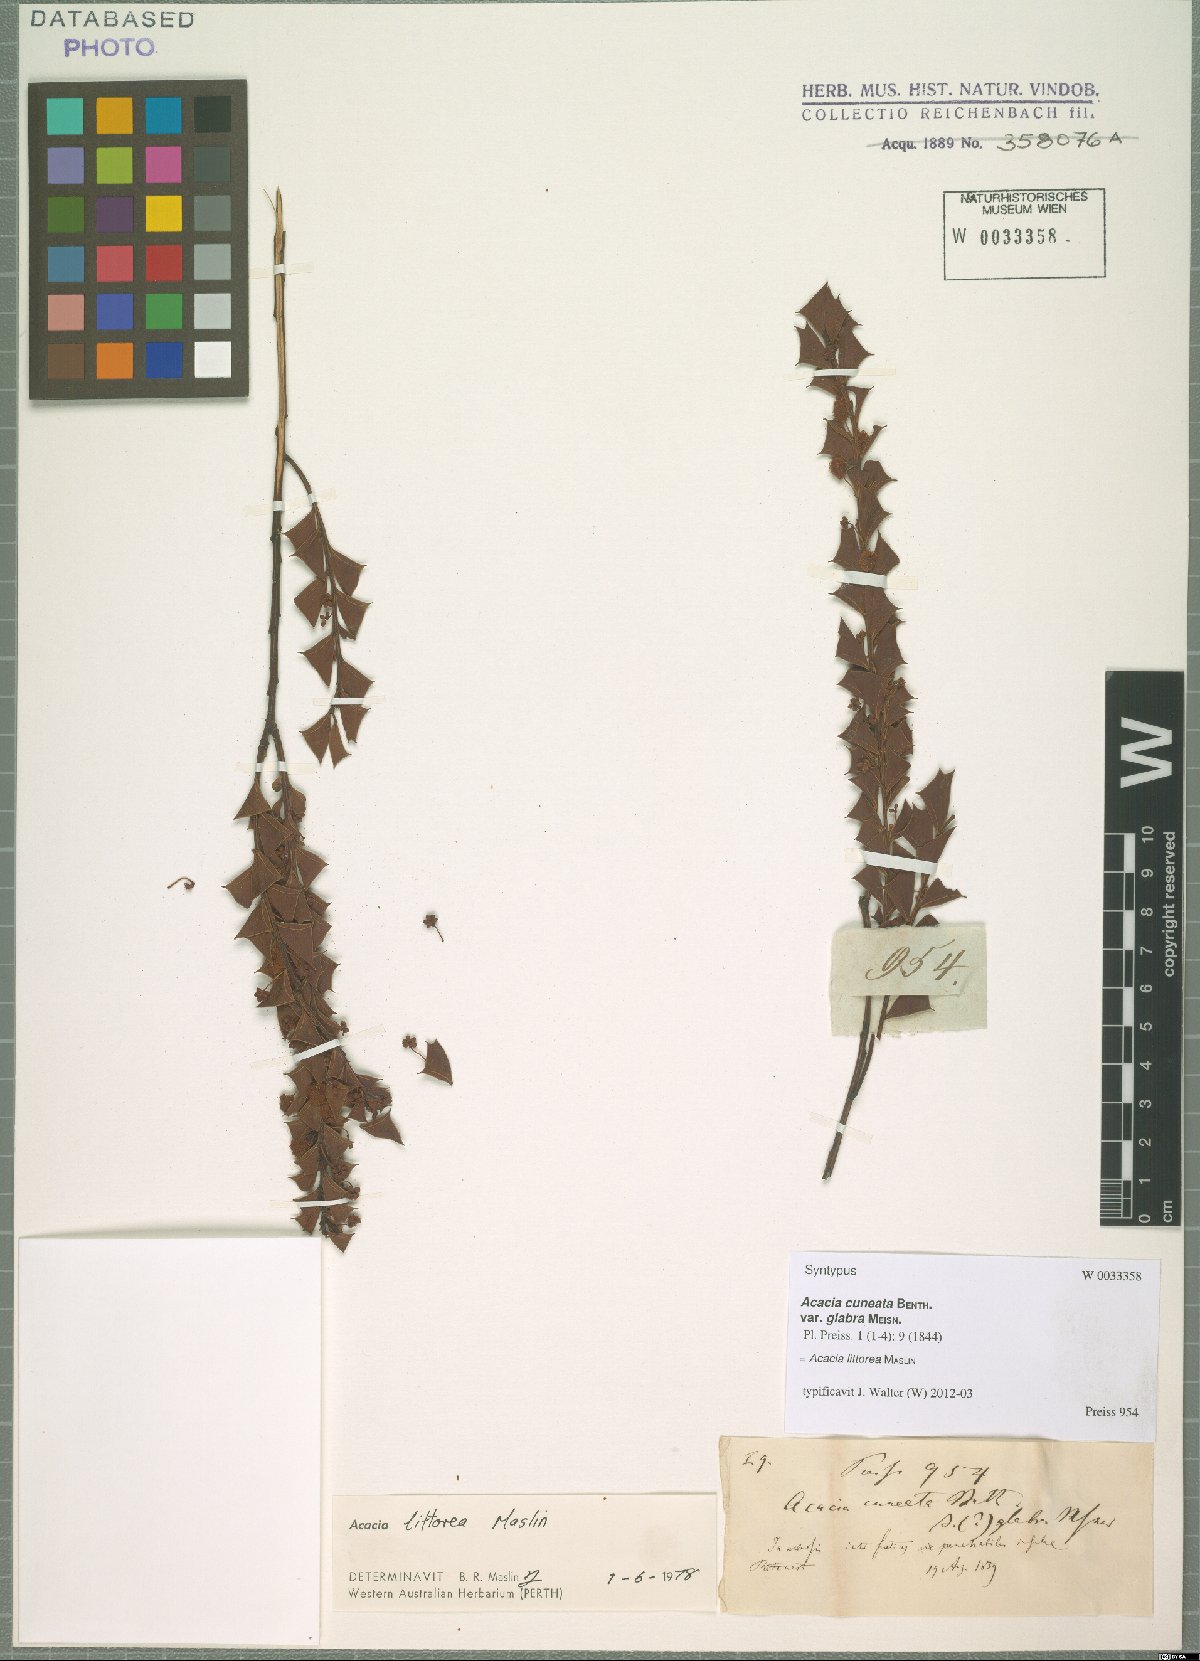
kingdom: Plantae
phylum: Tracheophyta
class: Magnoliopsida
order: Fabales
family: Fabaceae
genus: Acacia
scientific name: Acacia trapezoidea
